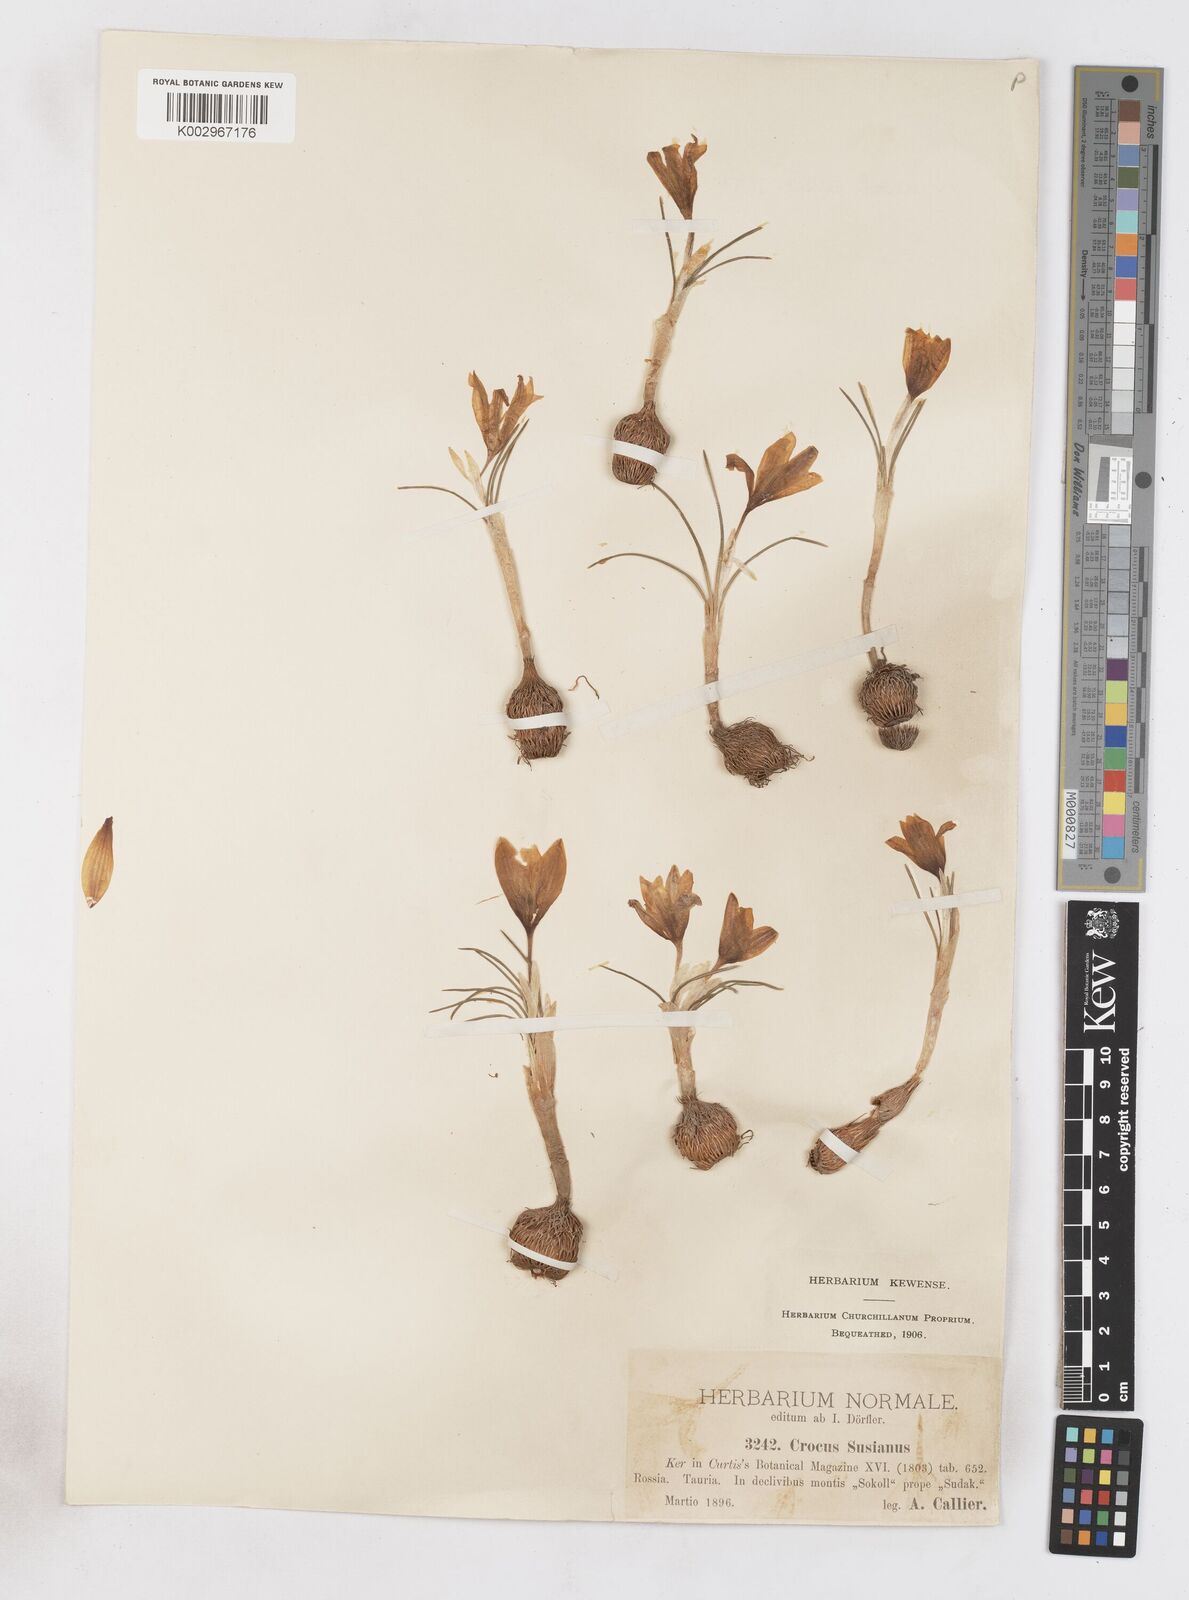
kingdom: Plantae
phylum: Tracheophyta
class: Liliopsida
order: Asparagales
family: Iridaceae
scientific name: Iridaceae
